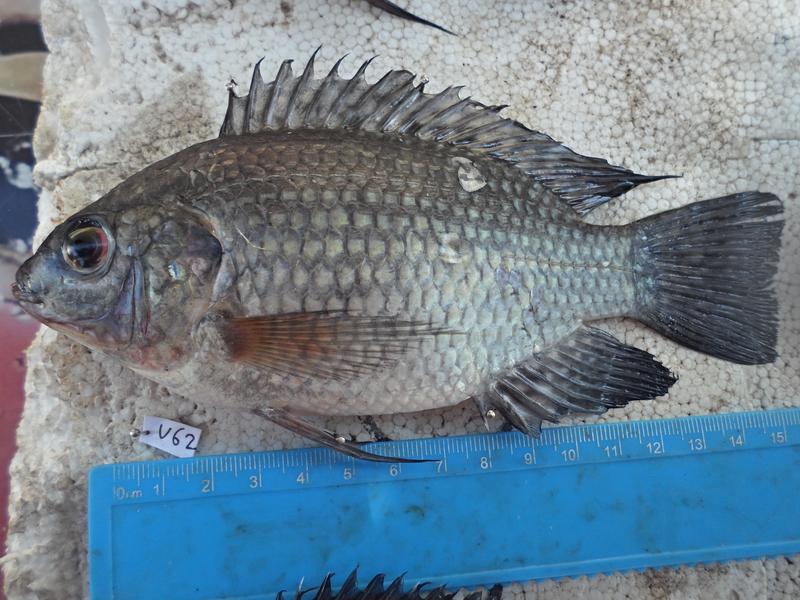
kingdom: Animalia
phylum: Chordata
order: Perciformes
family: Cichlidae
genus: Oreochromis
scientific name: Oreochromis leucostictus
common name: Blue spotted tilapia
